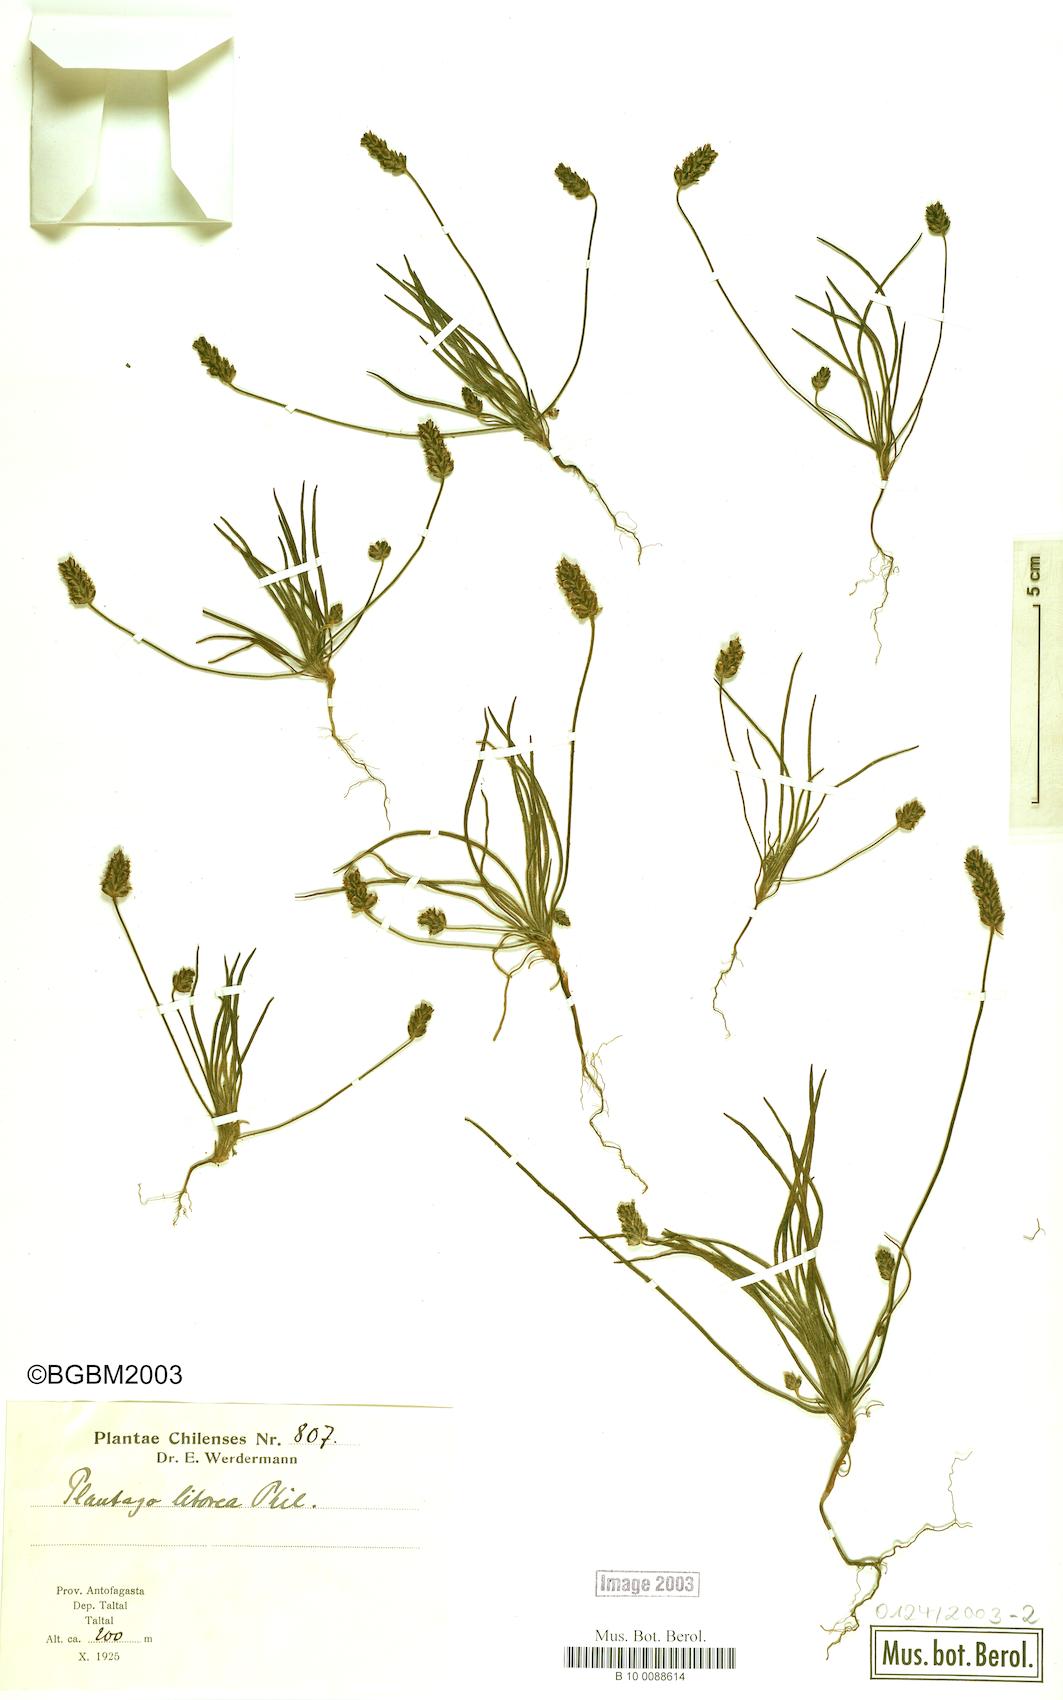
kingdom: Plantae
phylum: Tracheophyta
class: Magnoliopsida
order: Lamiales
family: Plantaginaceae
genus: Plantago
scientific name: Plantago litorea
